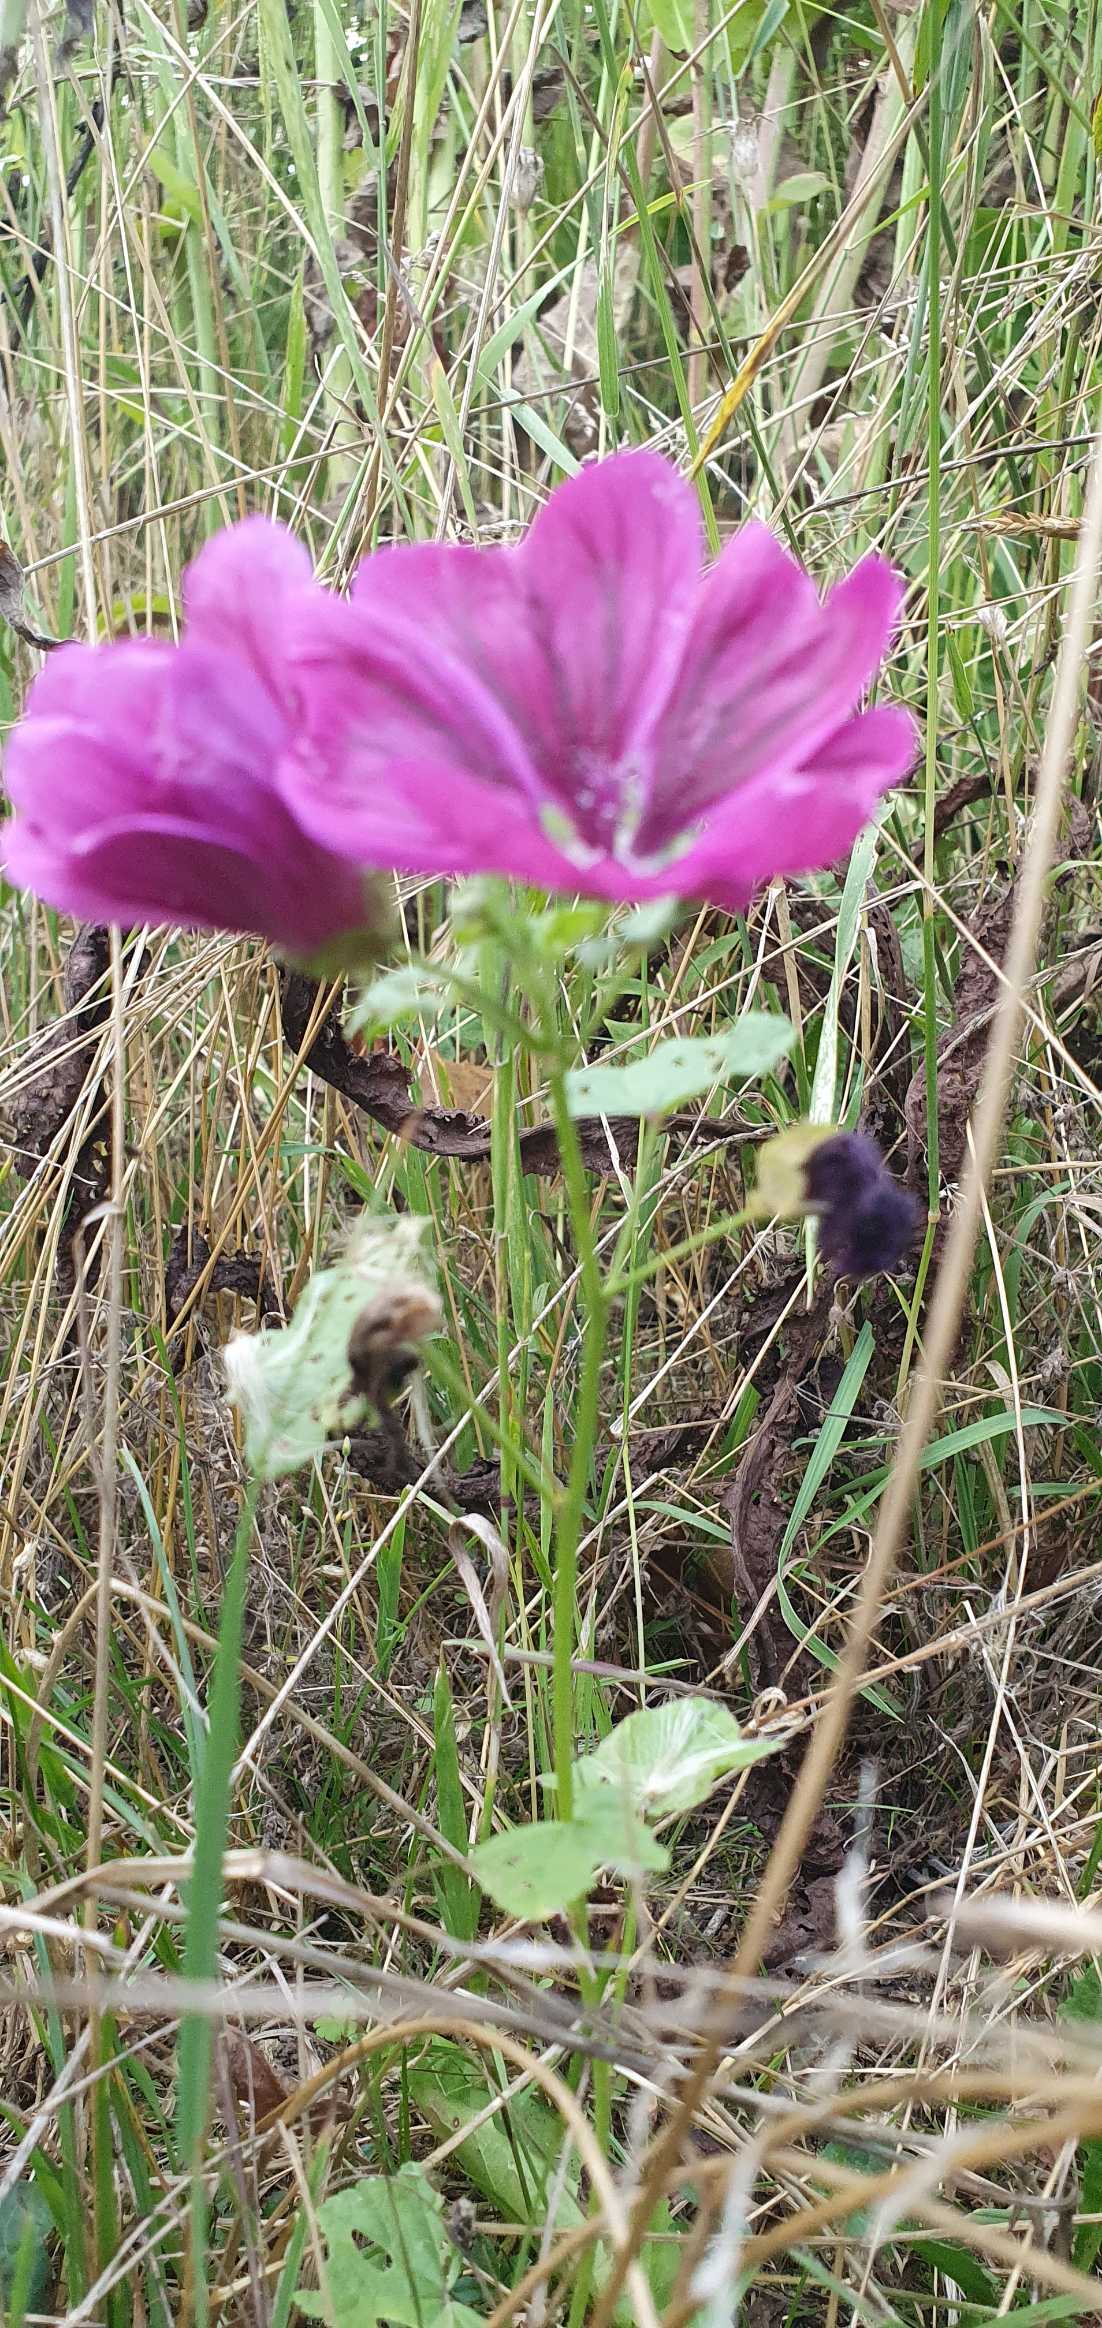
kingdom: Plantae
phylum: Tracheophyta
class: Magnoliopsida
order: Malvales
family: Malvaceae
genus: Malva
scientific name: Malva sylvestris
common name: Stor katost
